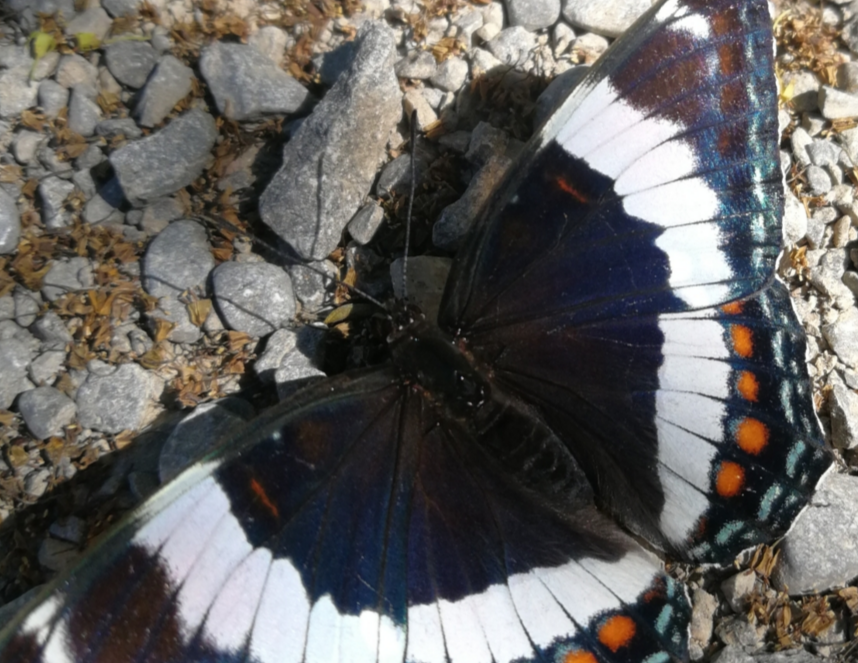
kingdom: Animalia
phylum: Arthropoda
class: Insecta
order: Lepidoptera
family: Nymphalidae
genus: Limenitis
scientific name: Limenitis arthemis
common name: Red-spotted Admiral
